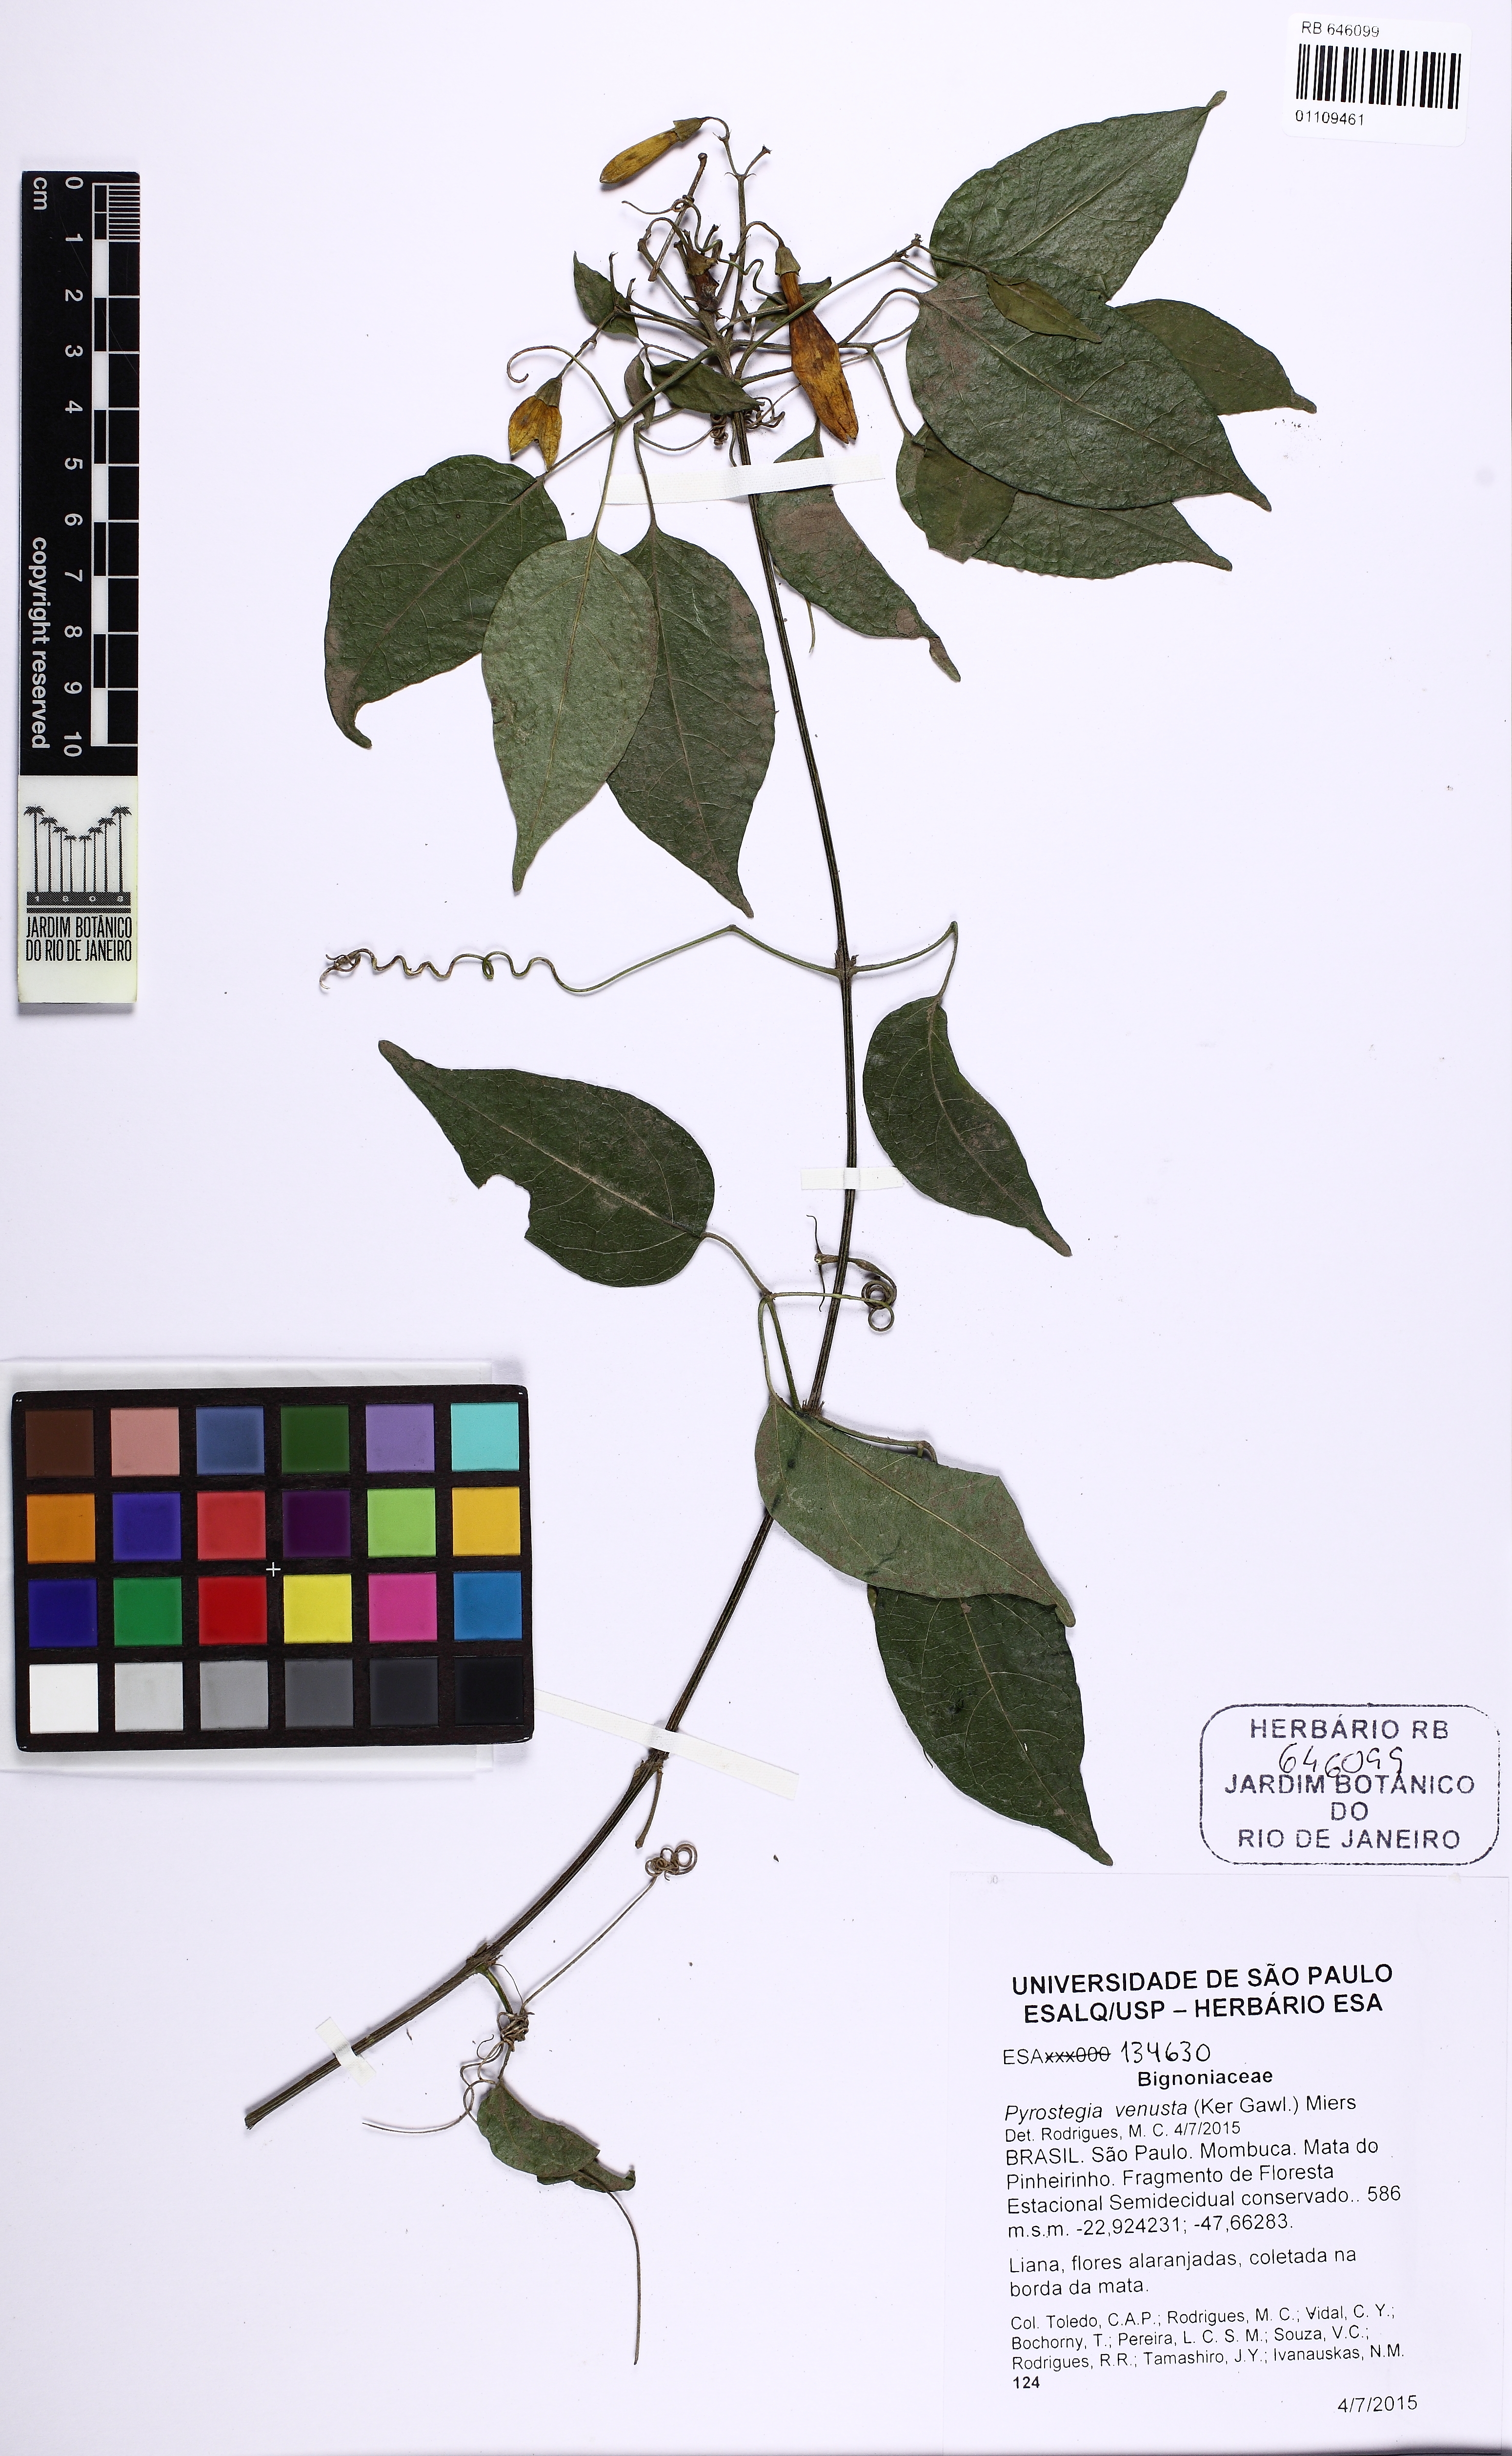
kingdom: Plantae
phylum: Tracheophyta
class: Magnoliopsida
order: Lamiales
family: Bignoniaceae
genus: Pyrostegia
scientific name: Pyrostegia venusta
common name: Flamevine
